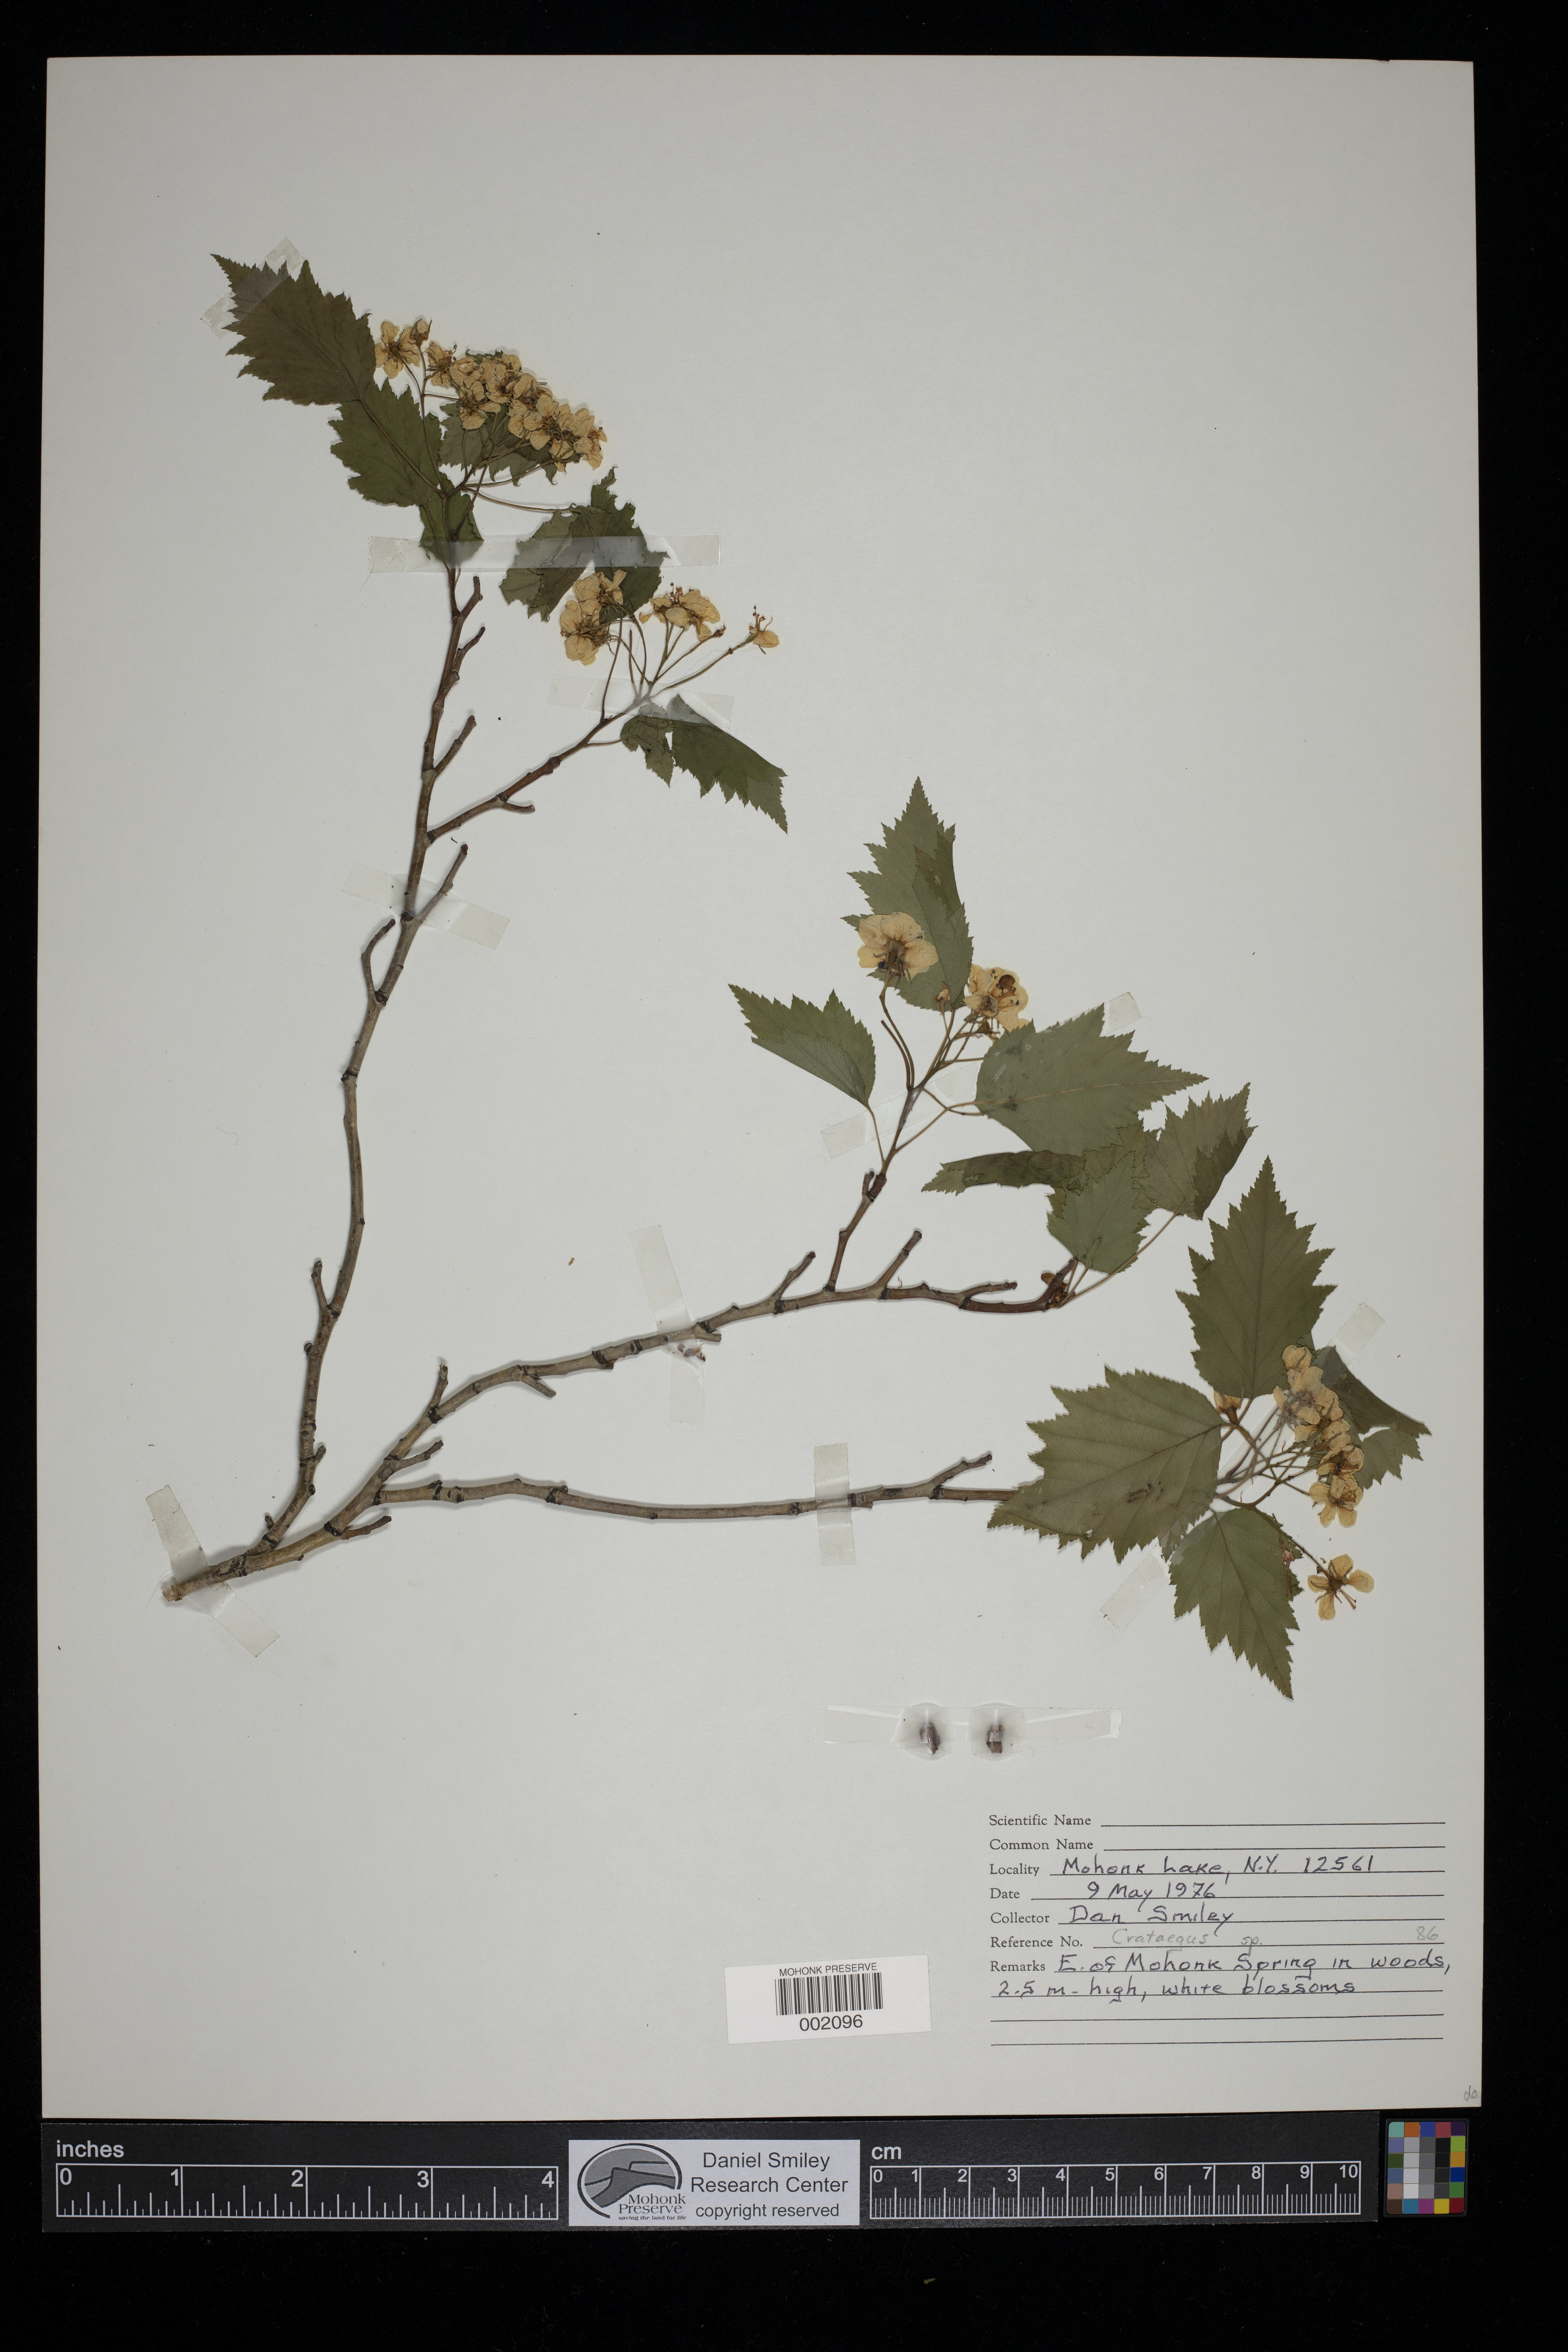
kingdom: Plantae
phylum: Tracheophyta
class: Magnoliopsida
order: Rosales
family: Rosaceae
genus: Crataegus
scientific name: Crataegus
